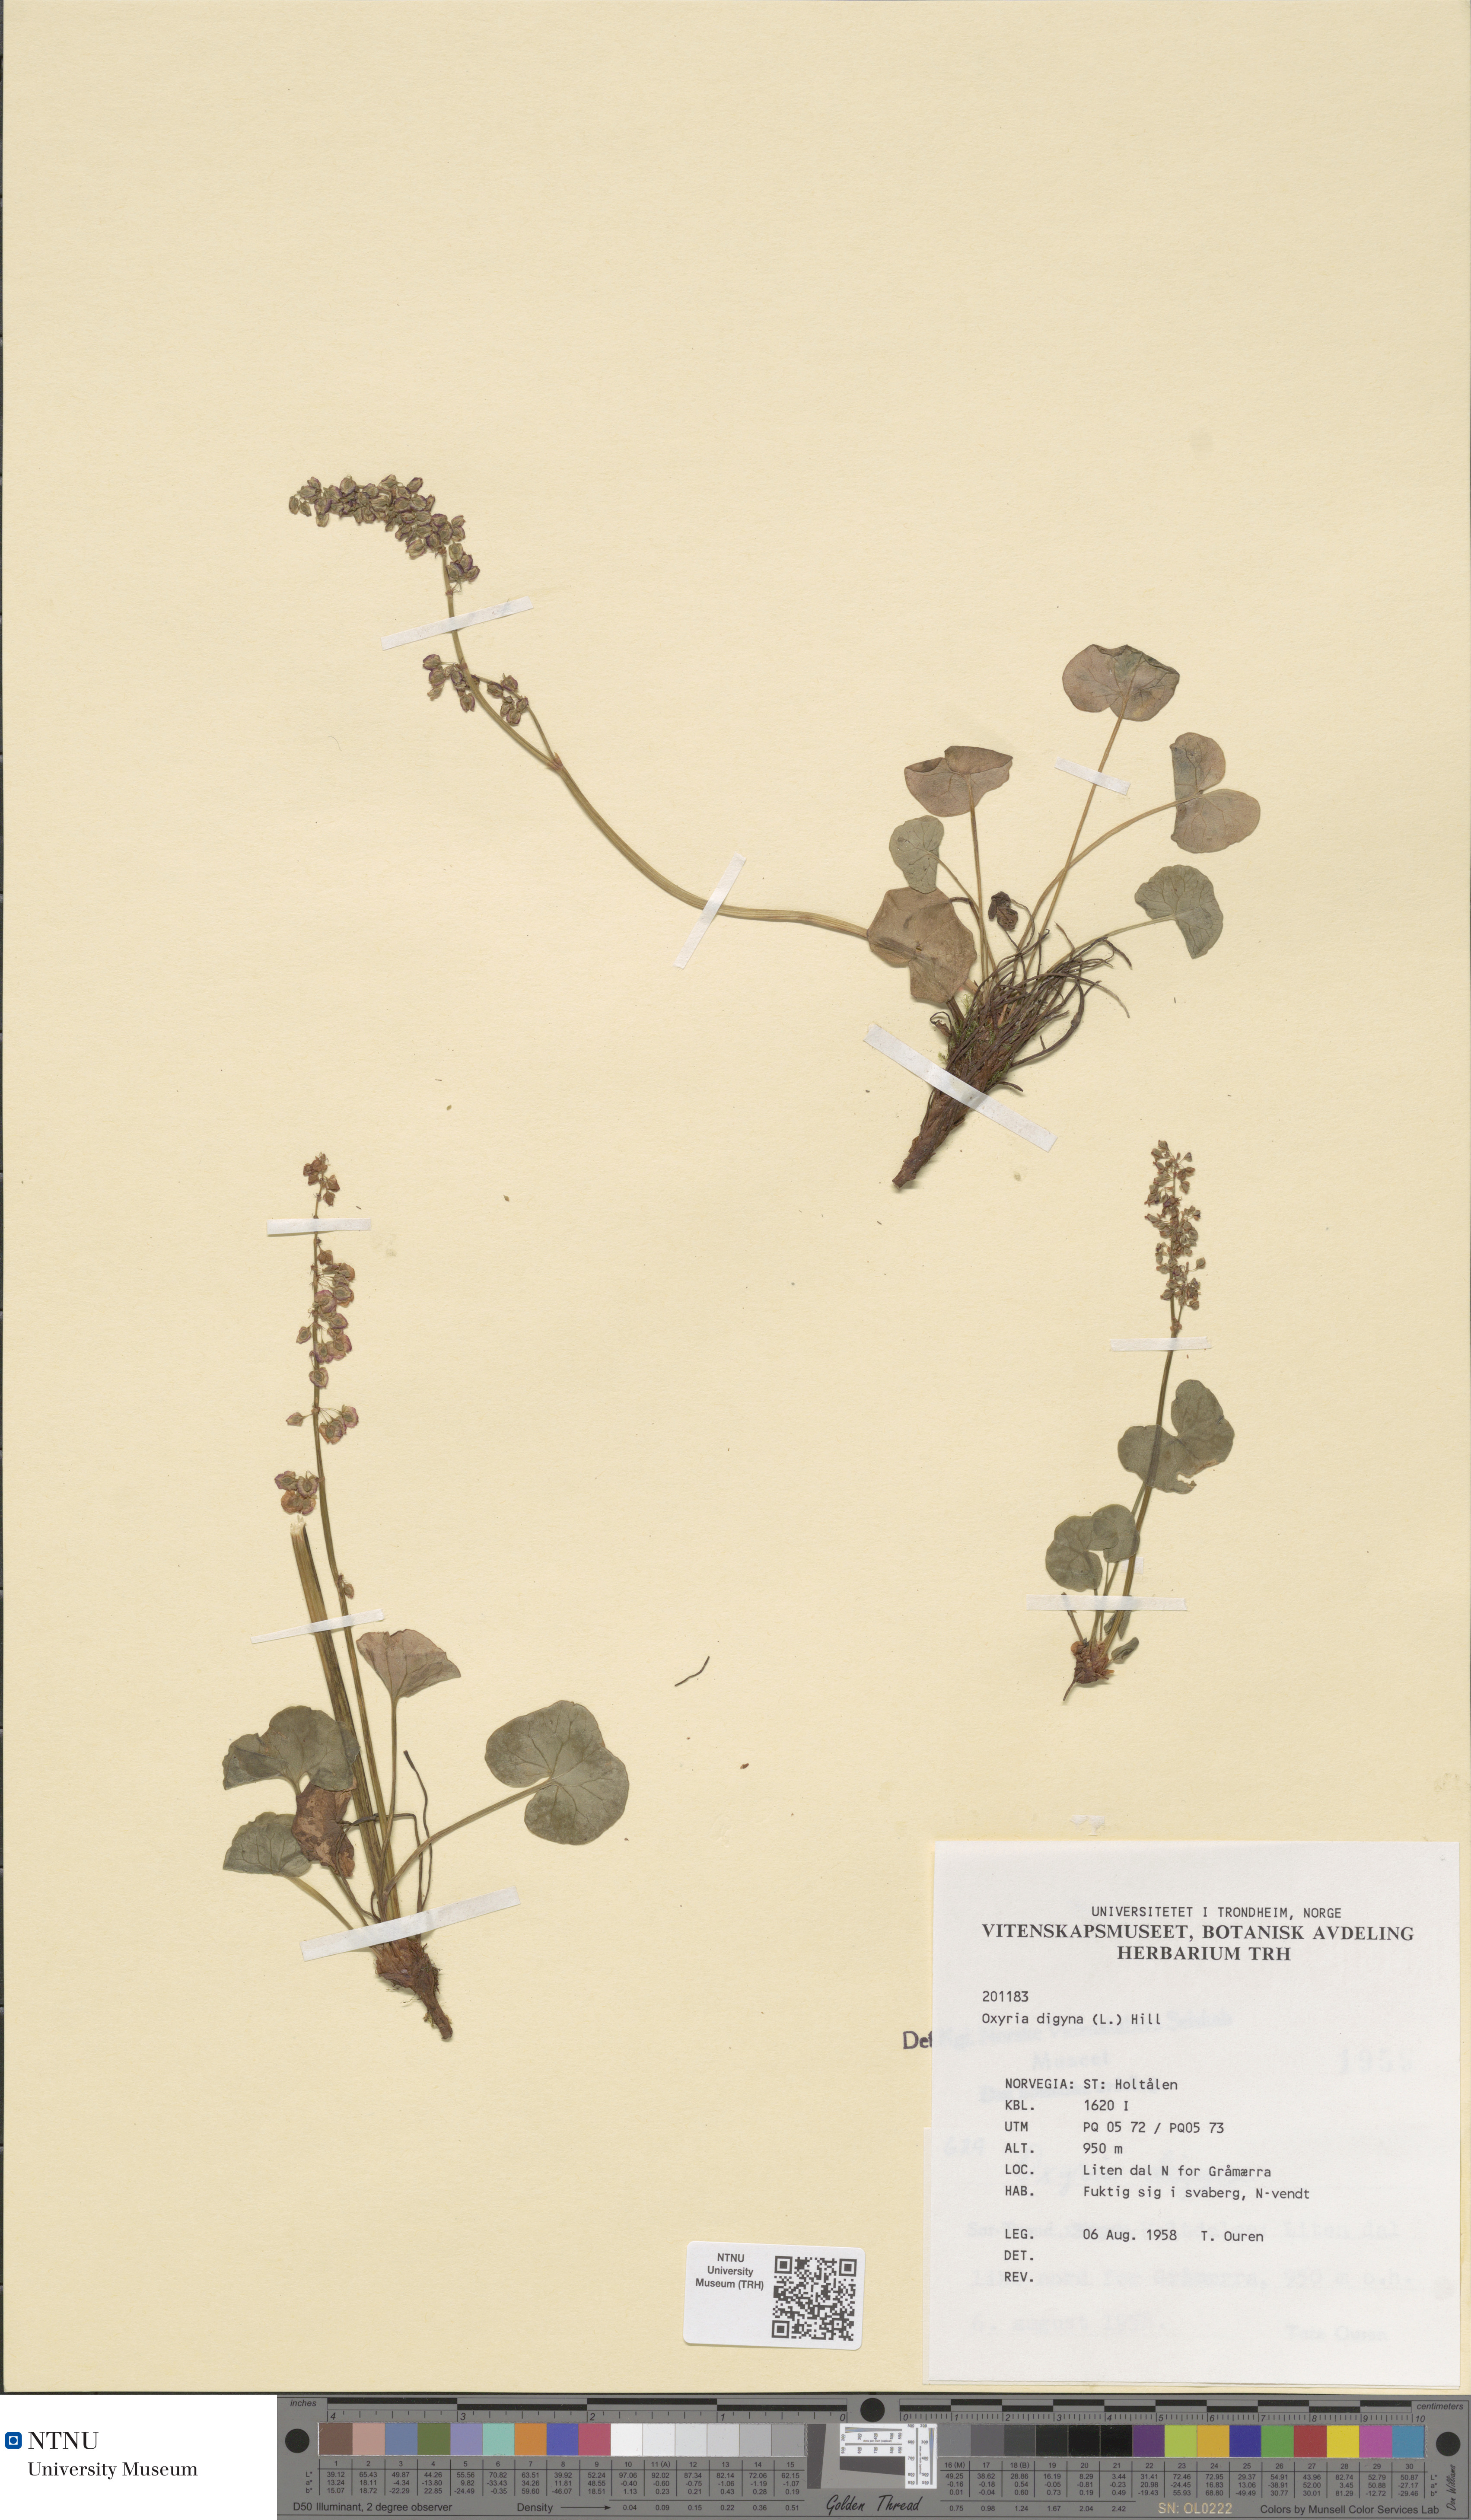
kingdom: Plantae
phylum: Tracheophyta
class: Magnoliopsida
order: Caryophyllales
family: Polygonaceae
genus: Oxyria
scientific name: Oxyria digyna
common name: Alpine mountain-sorrel
